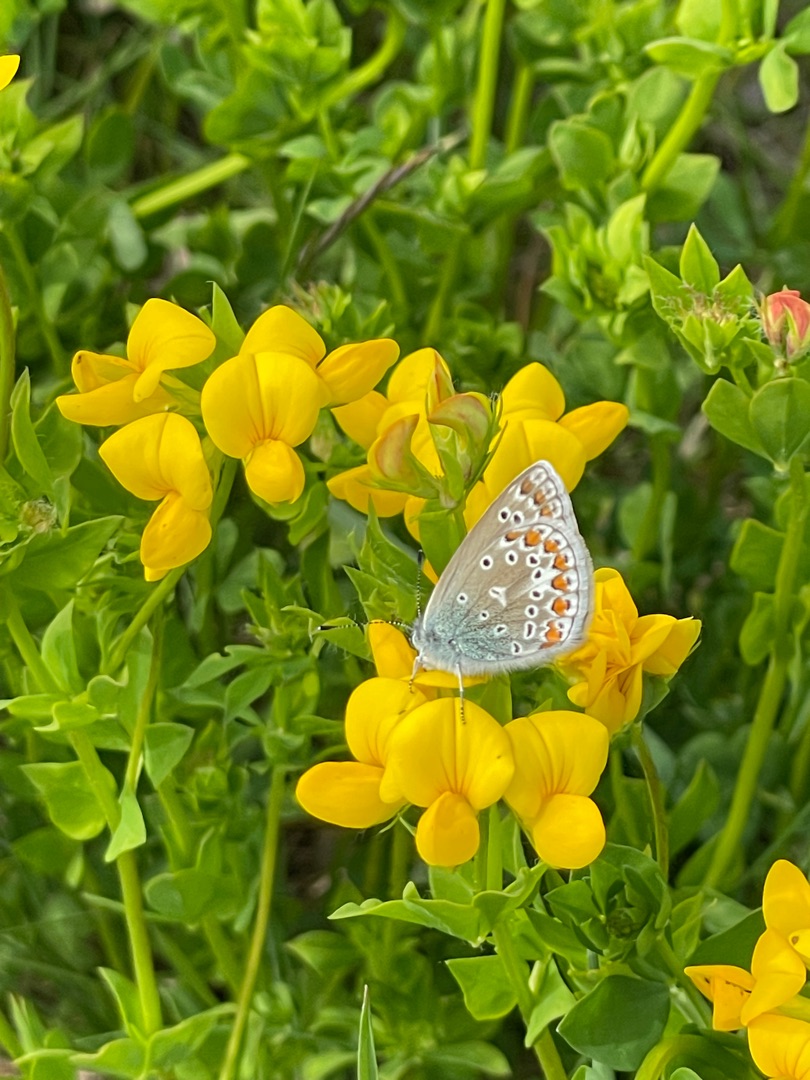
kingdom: Animalia
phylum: Arthropoda
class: Insecta
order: Lepidoptera
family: Lycaenidae
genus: Polyommatus
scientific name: Polyommatus icarus
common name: Almindelig blåfugl
